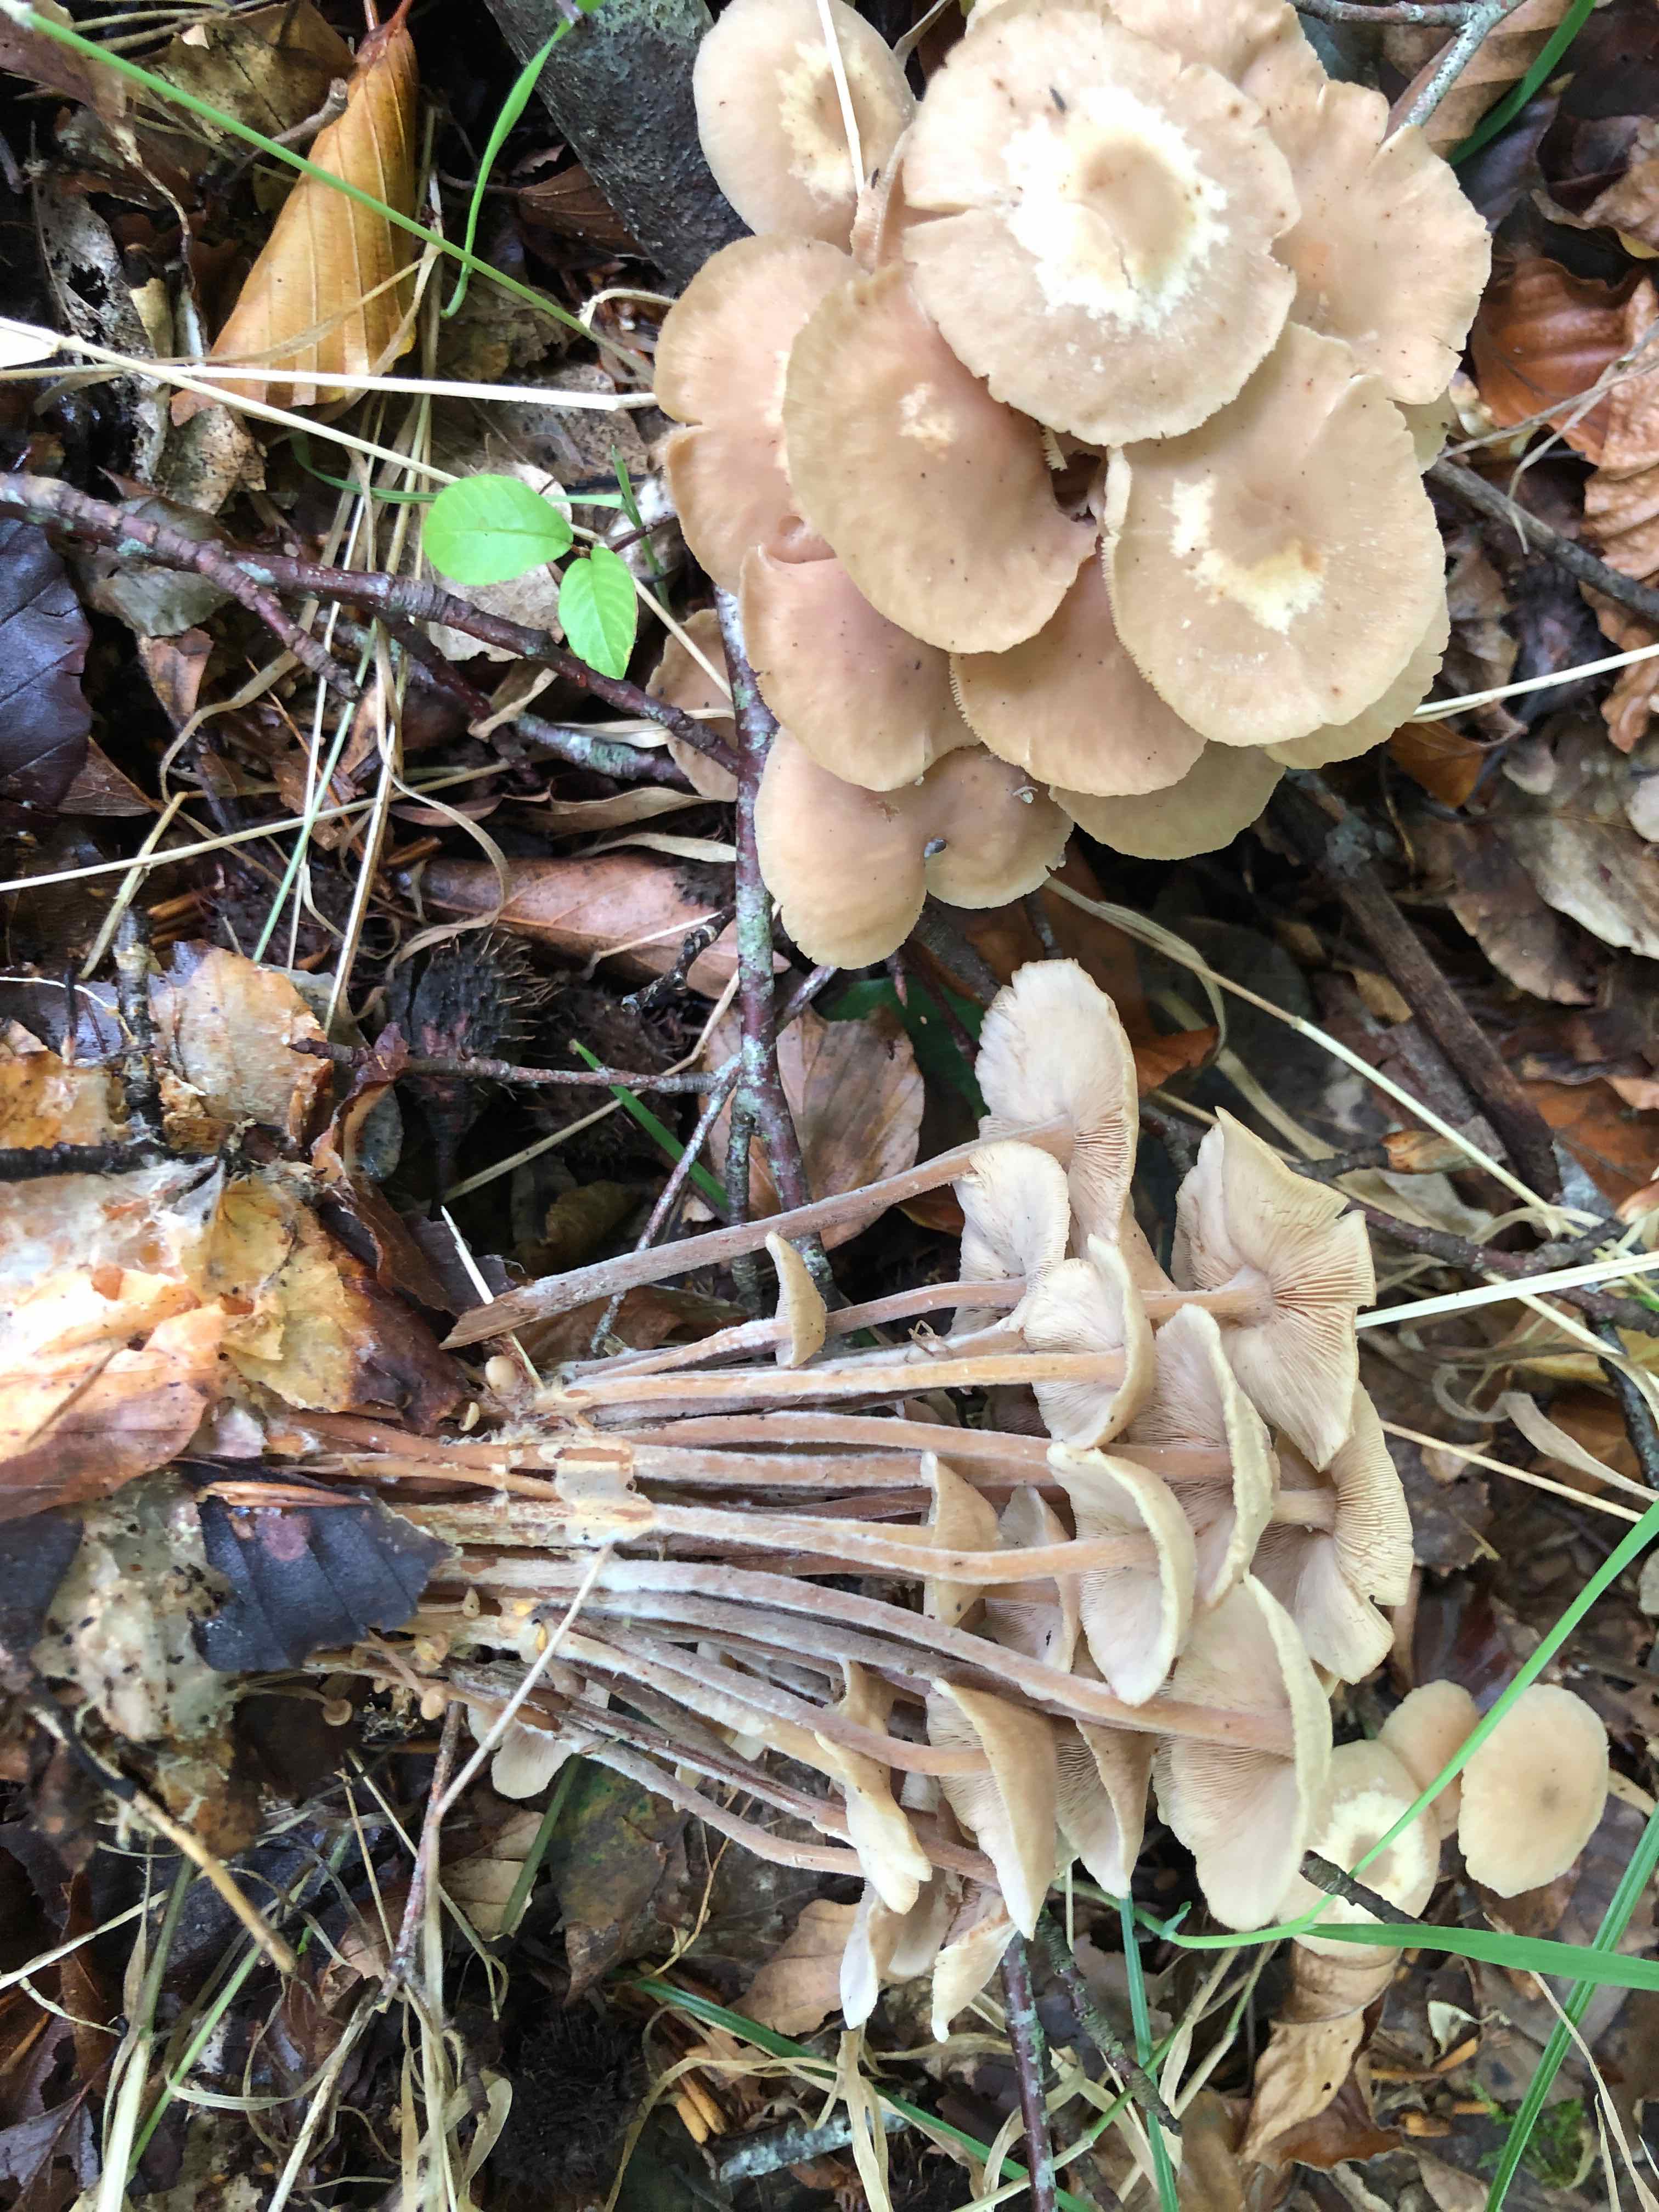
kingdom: Fungi
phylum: Basidiomycota
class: Agaricomycetes
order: Agaricales
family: Omphalotaceae
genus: Collybiopsis
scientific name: Collybiopsis confluens
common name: knippe-fladhat
